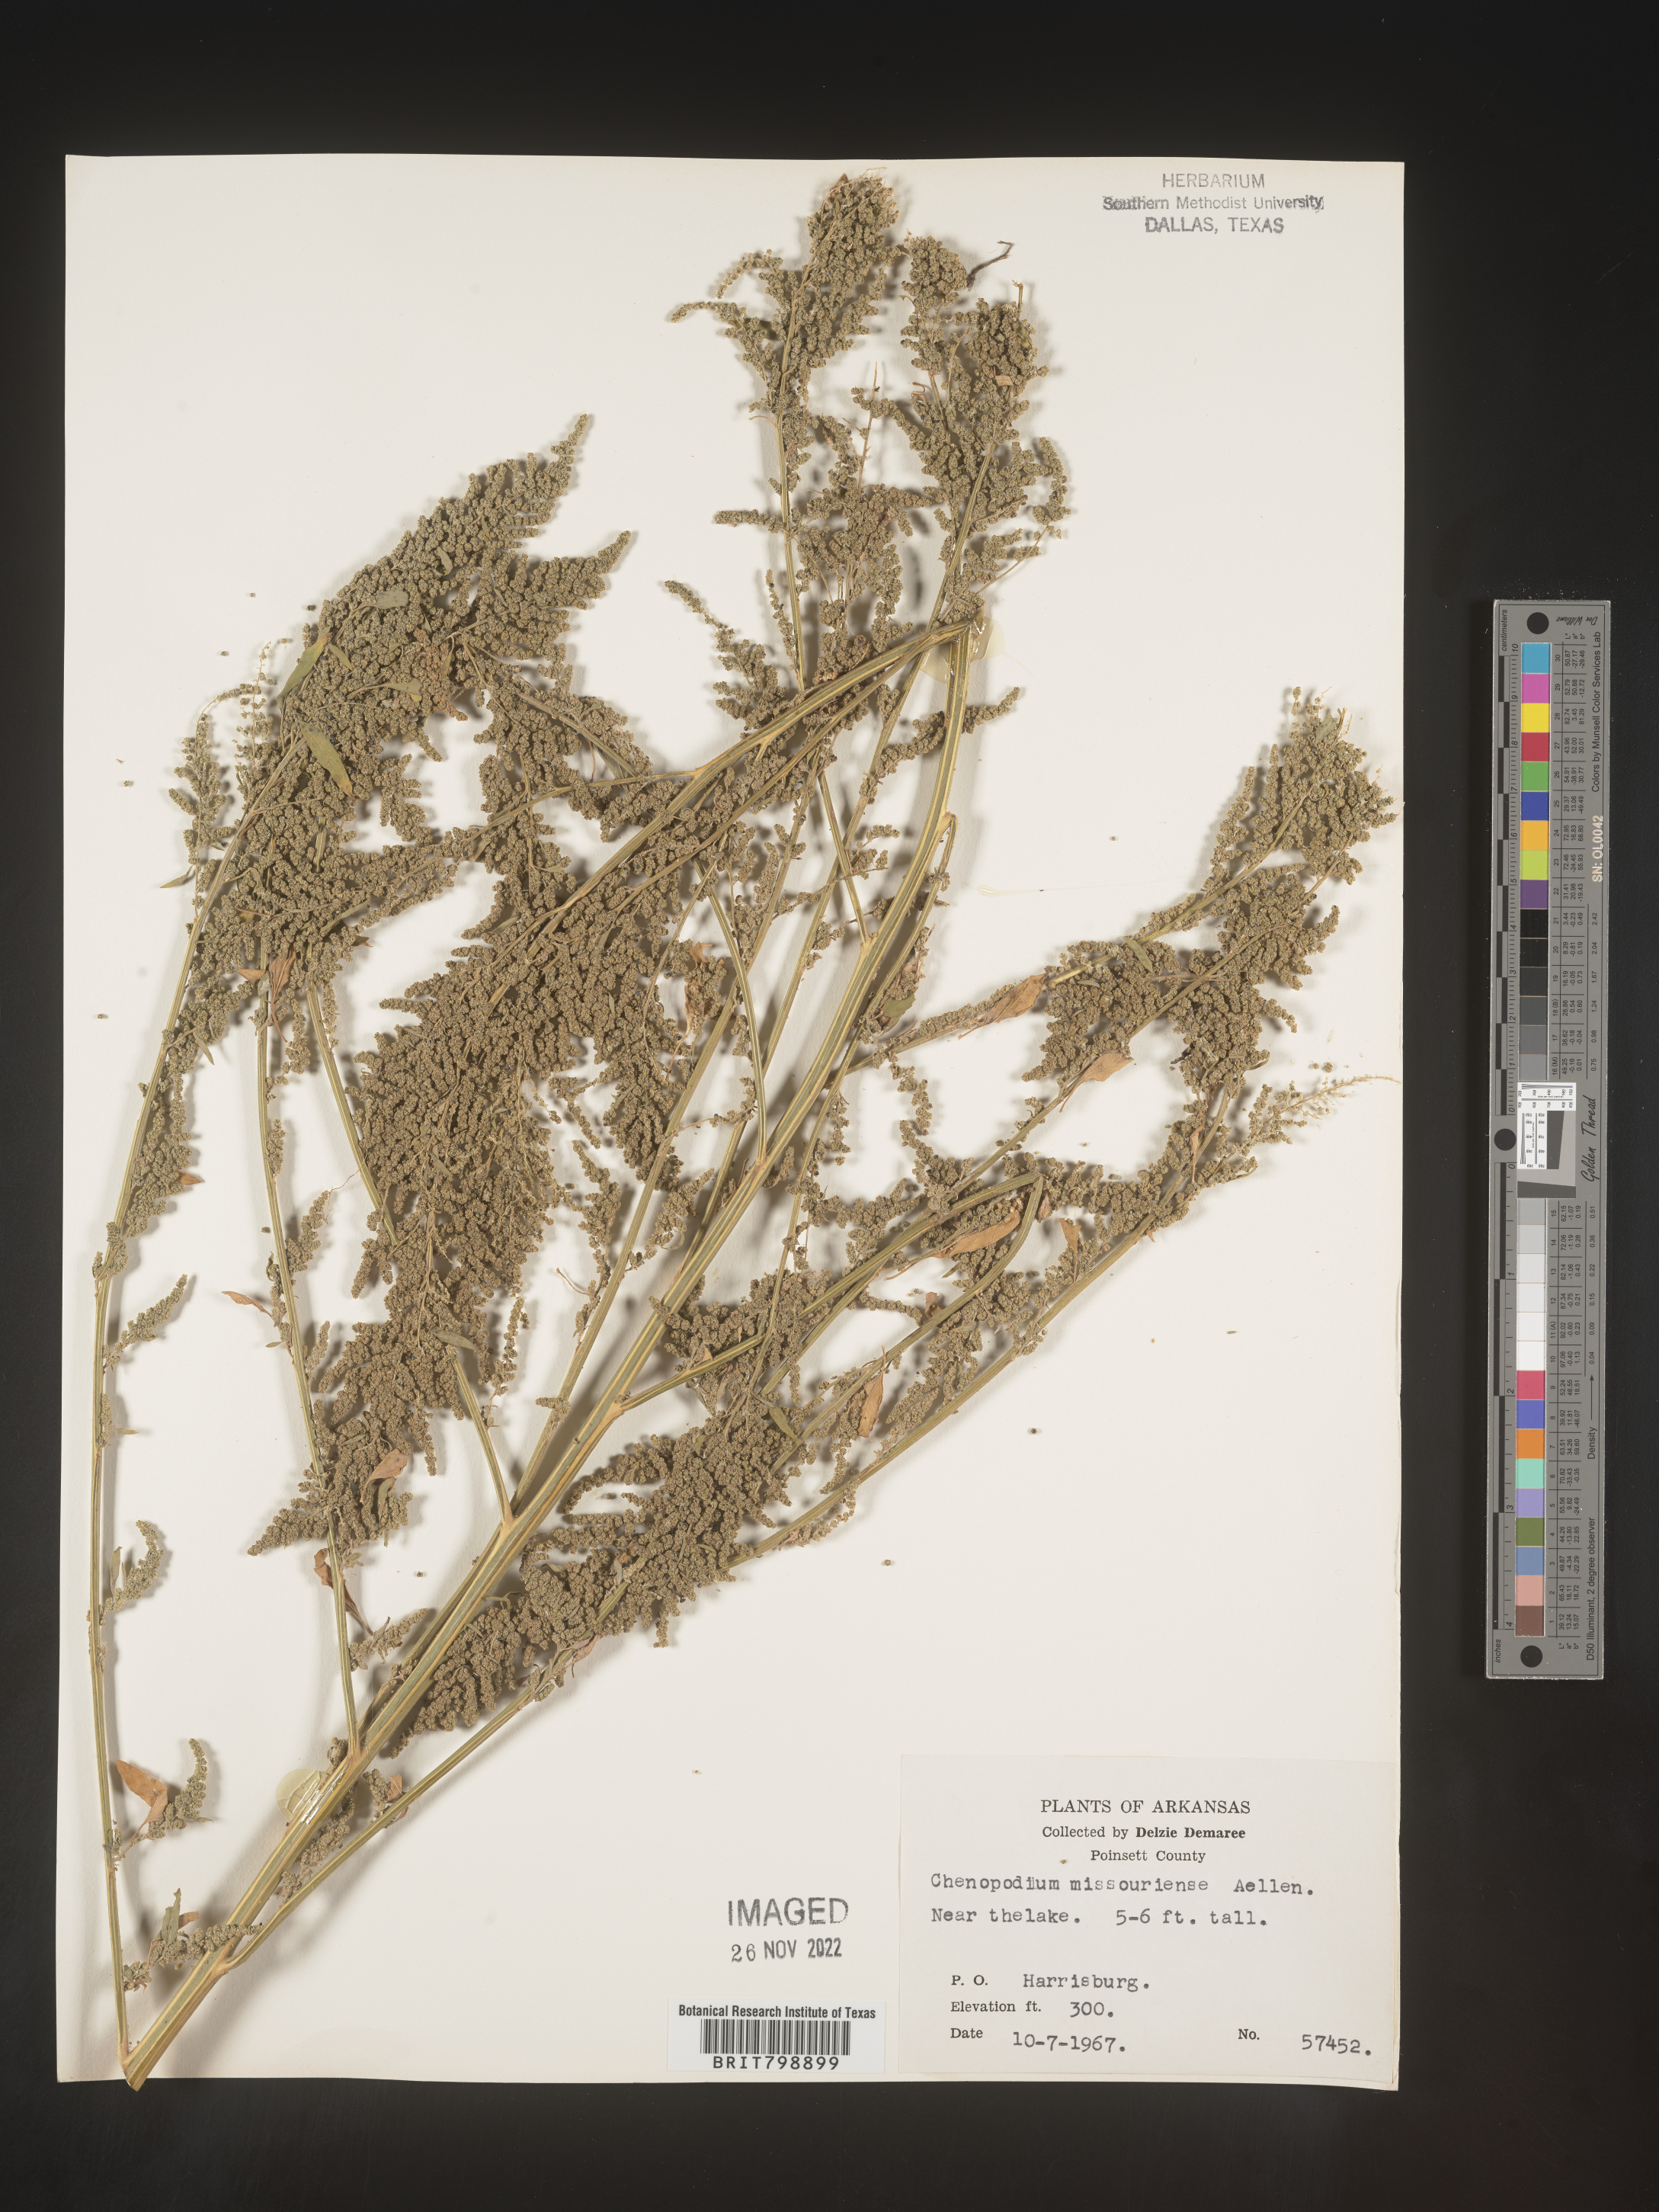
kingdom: Plantae
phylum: Tracheophyta
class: Magnoliopsida
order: Caryophyllales
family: Amaranthaceae
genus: Chenopodium
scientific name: Chenopodium album
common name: Fat-hen
